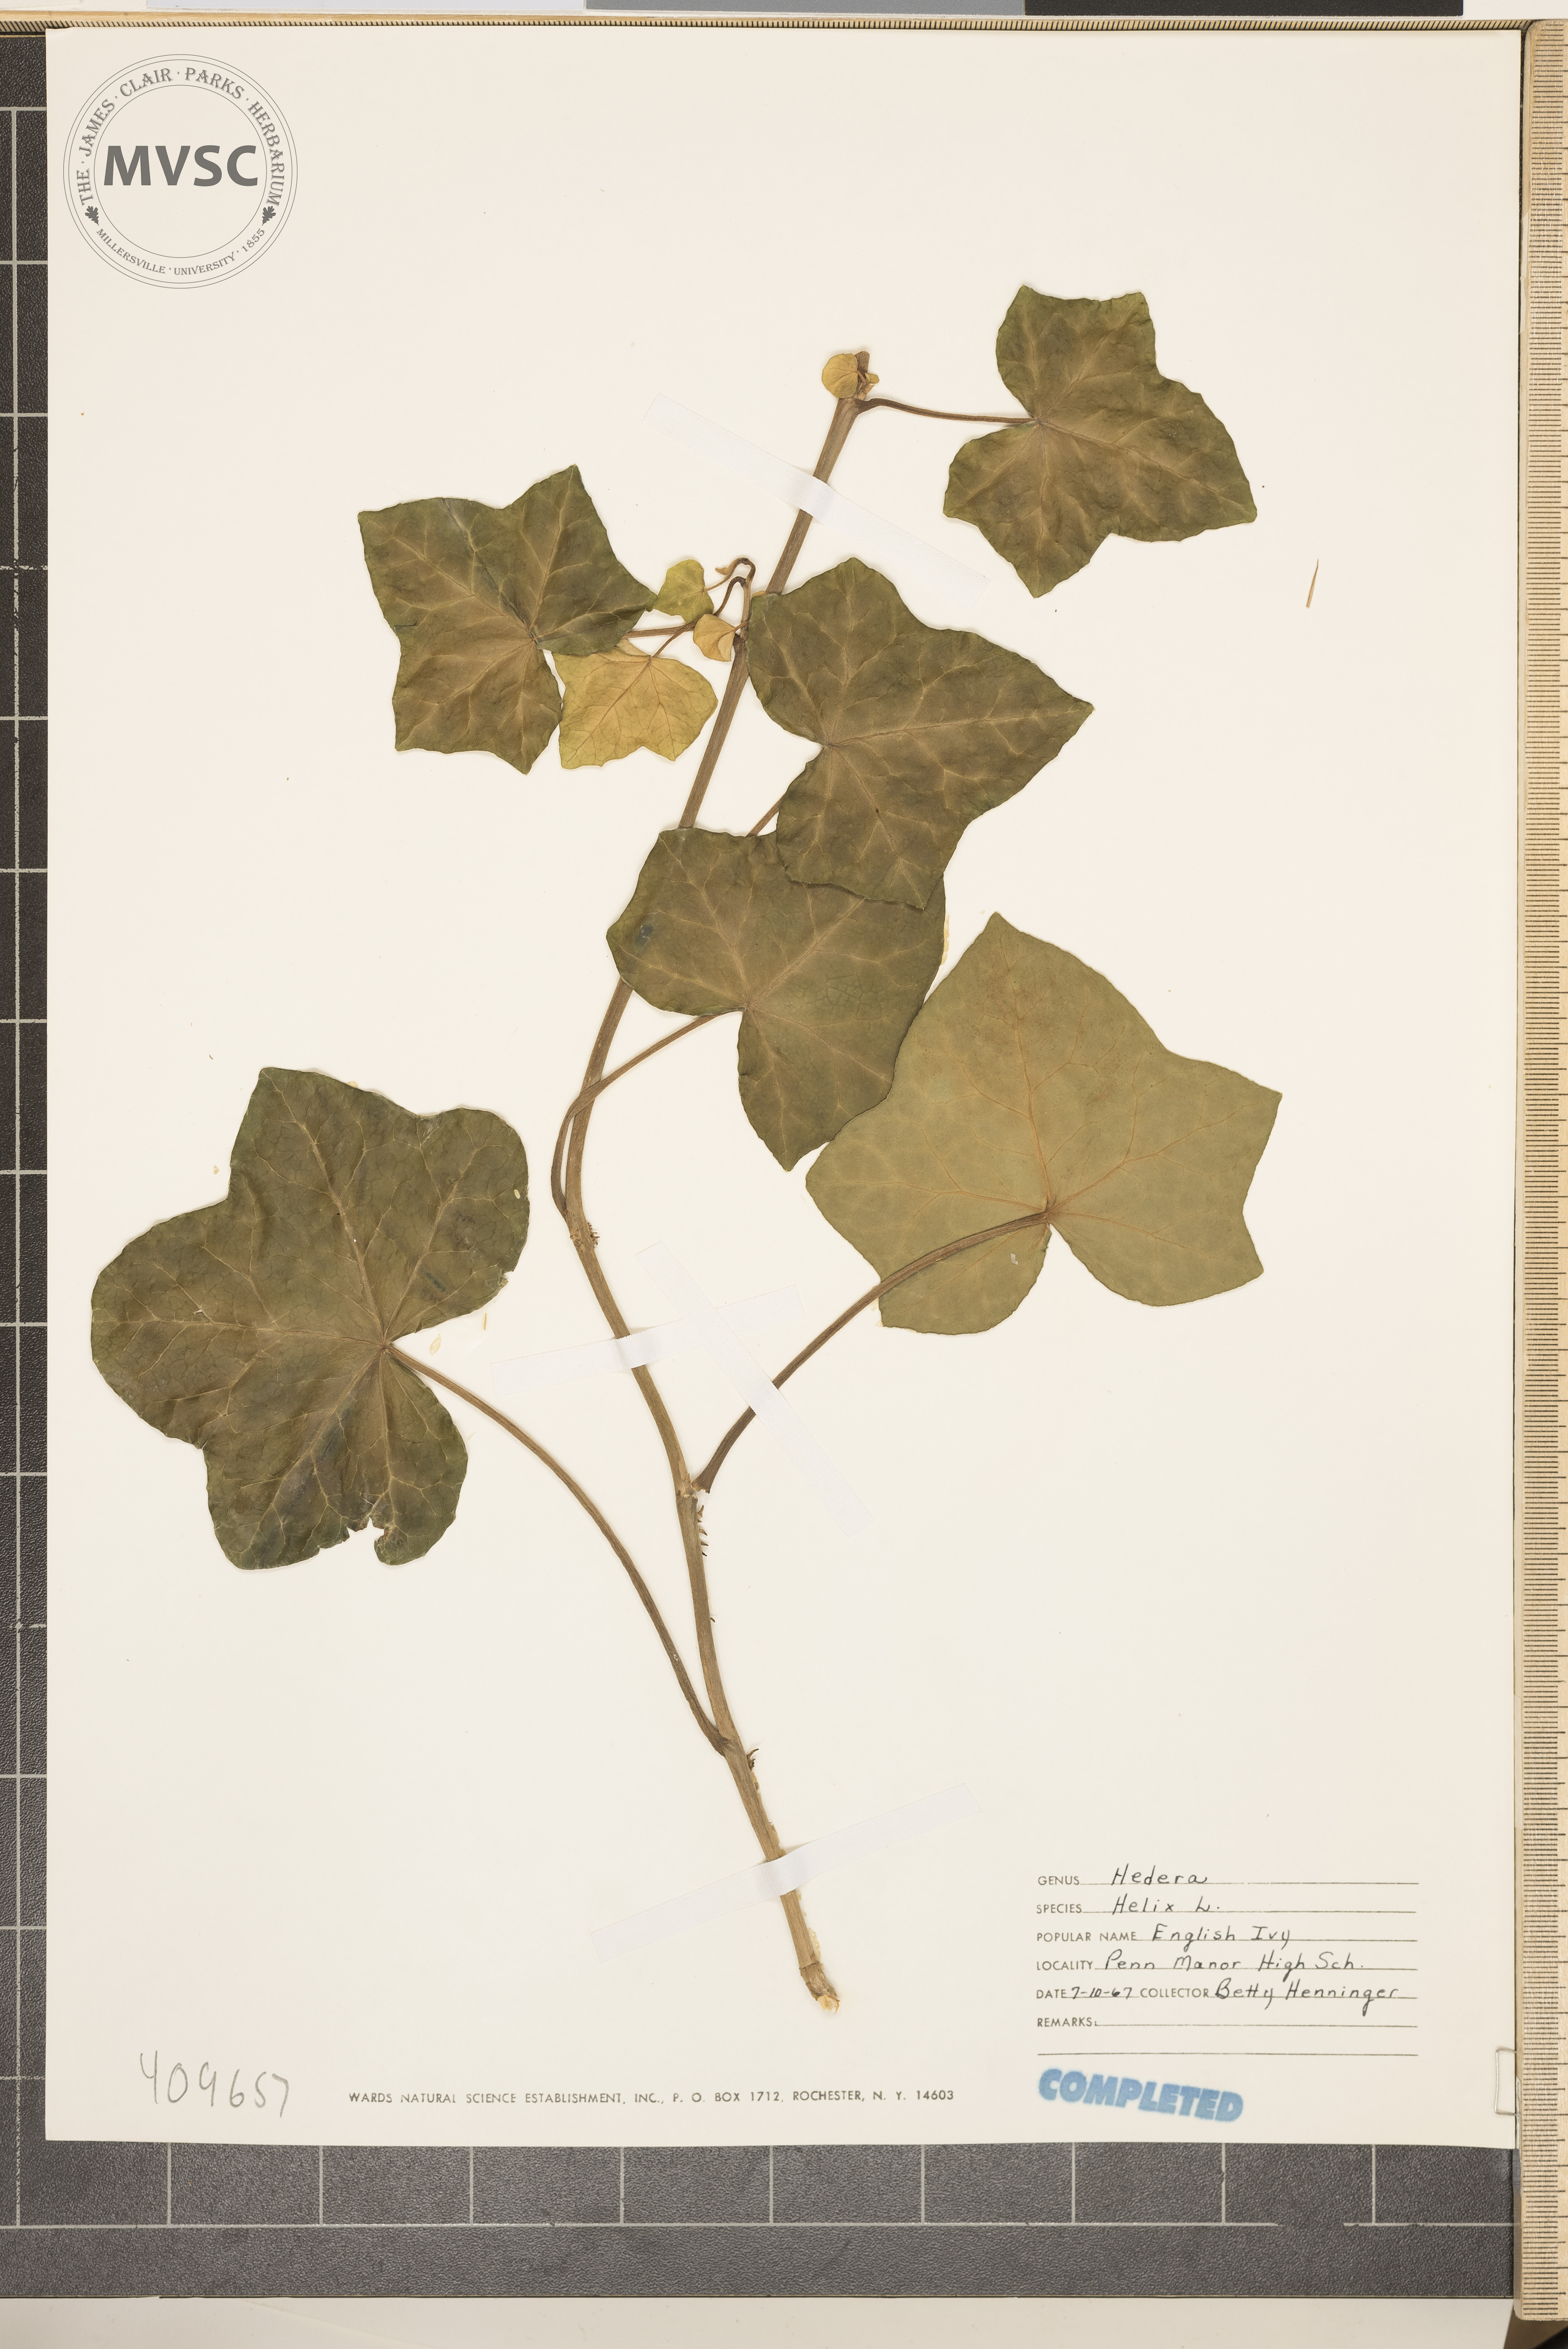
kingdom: Plantae
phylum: Tracheophyta
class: Magnoliopsida
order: Apiales
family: Araliaceae
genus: Hedera
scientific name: Hedera helix
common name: Ivy
